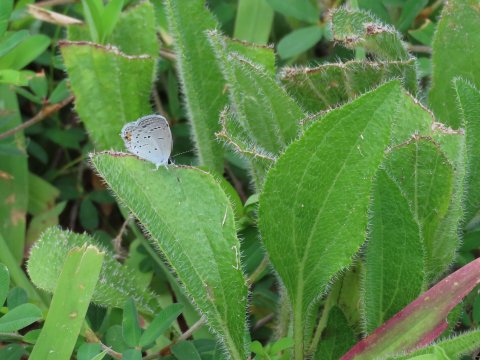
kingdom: Animalia
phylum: Arthropoda
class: Insecta
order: Lepidoptera
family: Lycaenidae
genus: Elkalyce
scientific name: Elkalyce comyntas
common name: Eastern Tailed-Blue
